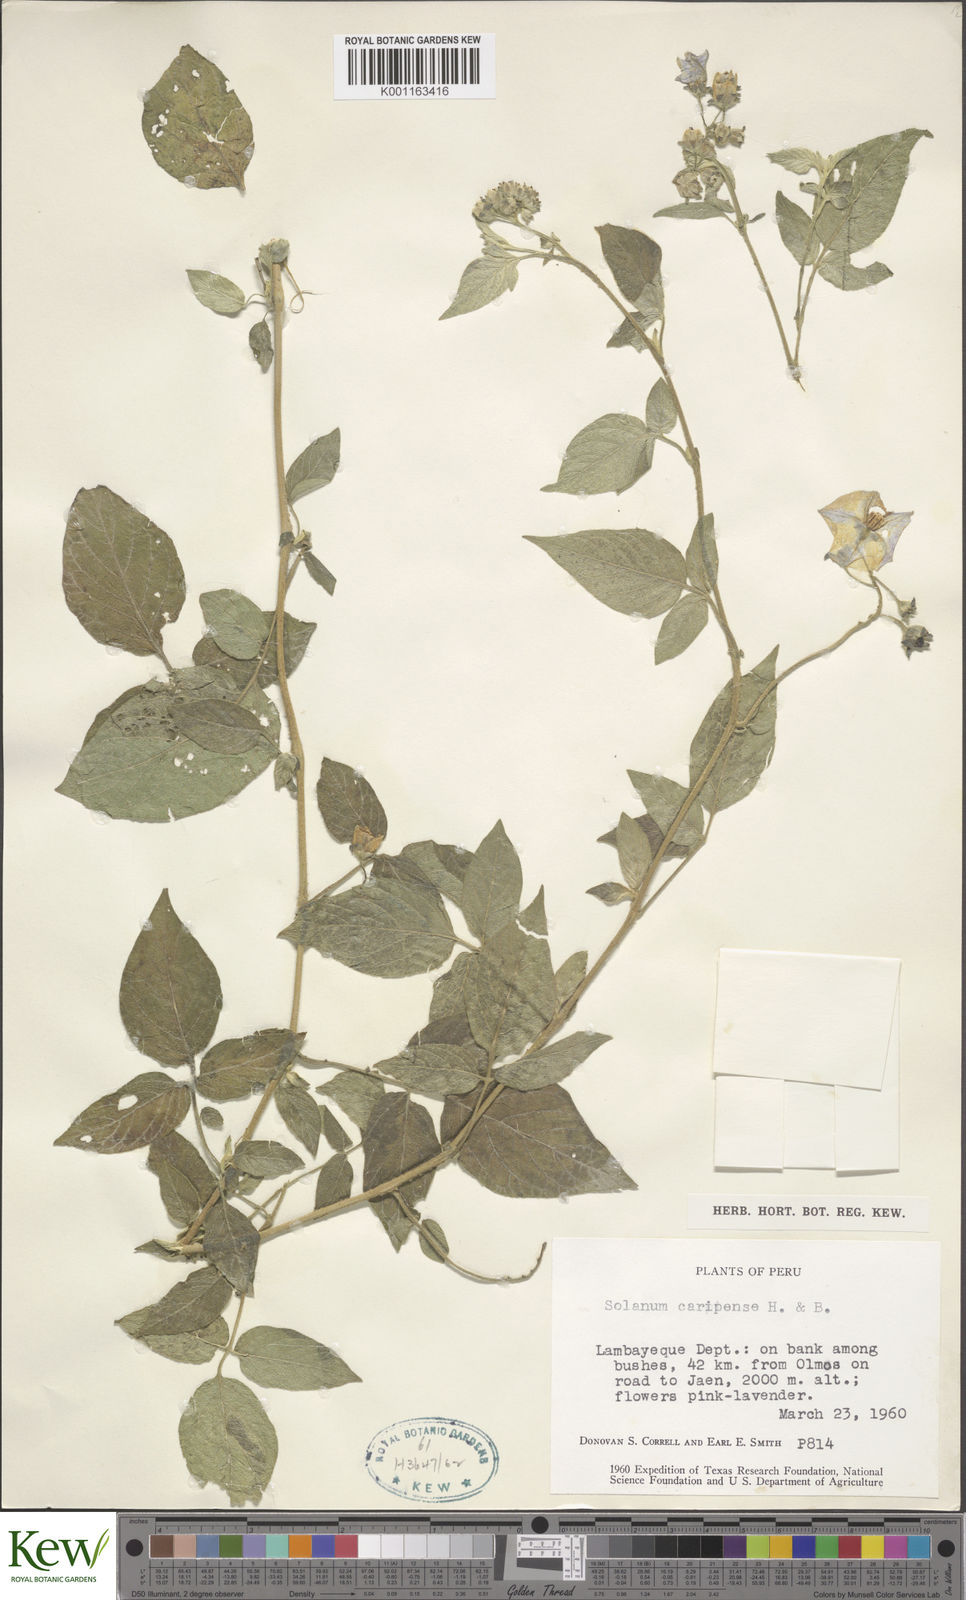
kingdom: Plantae
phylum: Tracheophyta
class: Magnoliopsida
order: Solanales
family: Solanaceae
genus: Solanum
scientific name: Solanum caripense
